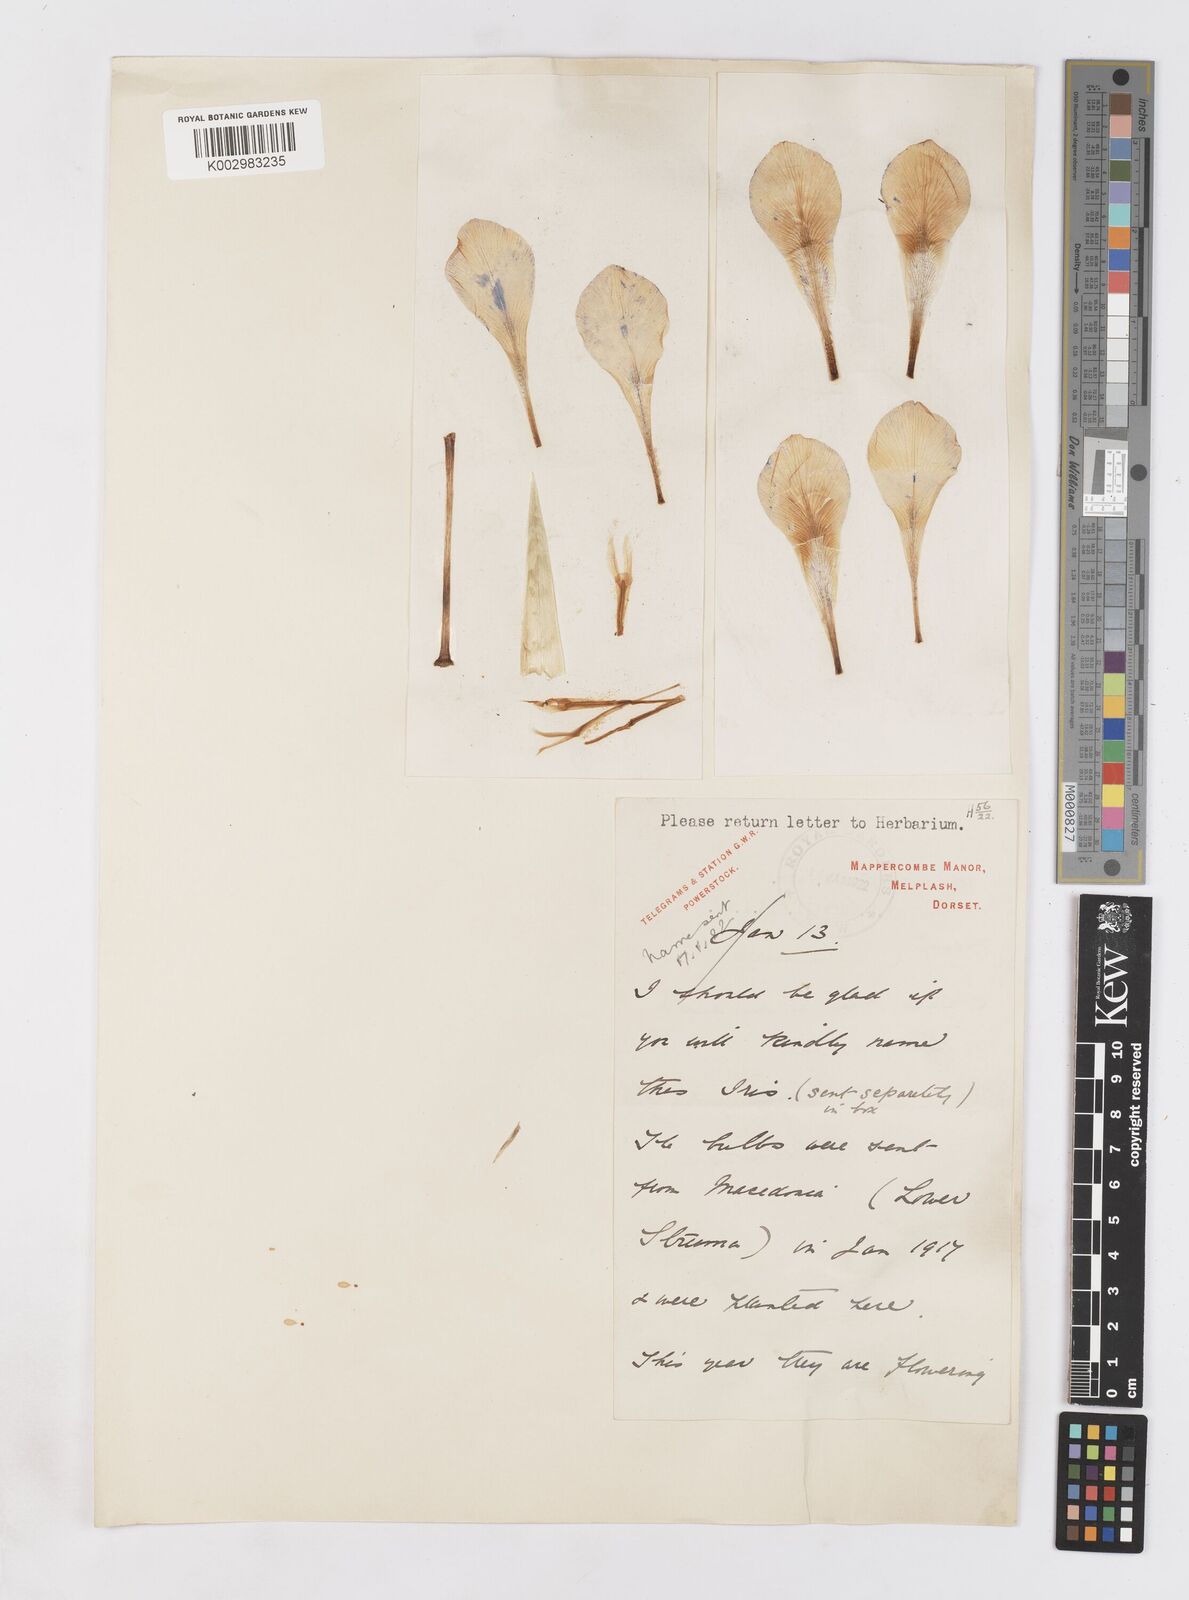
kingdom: Plantae
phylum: Tracheophyta
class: Liliopsida
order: Asparagales
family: Iridaceae
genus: Iris
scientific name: Iris unguicularis
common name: Algerian iris
